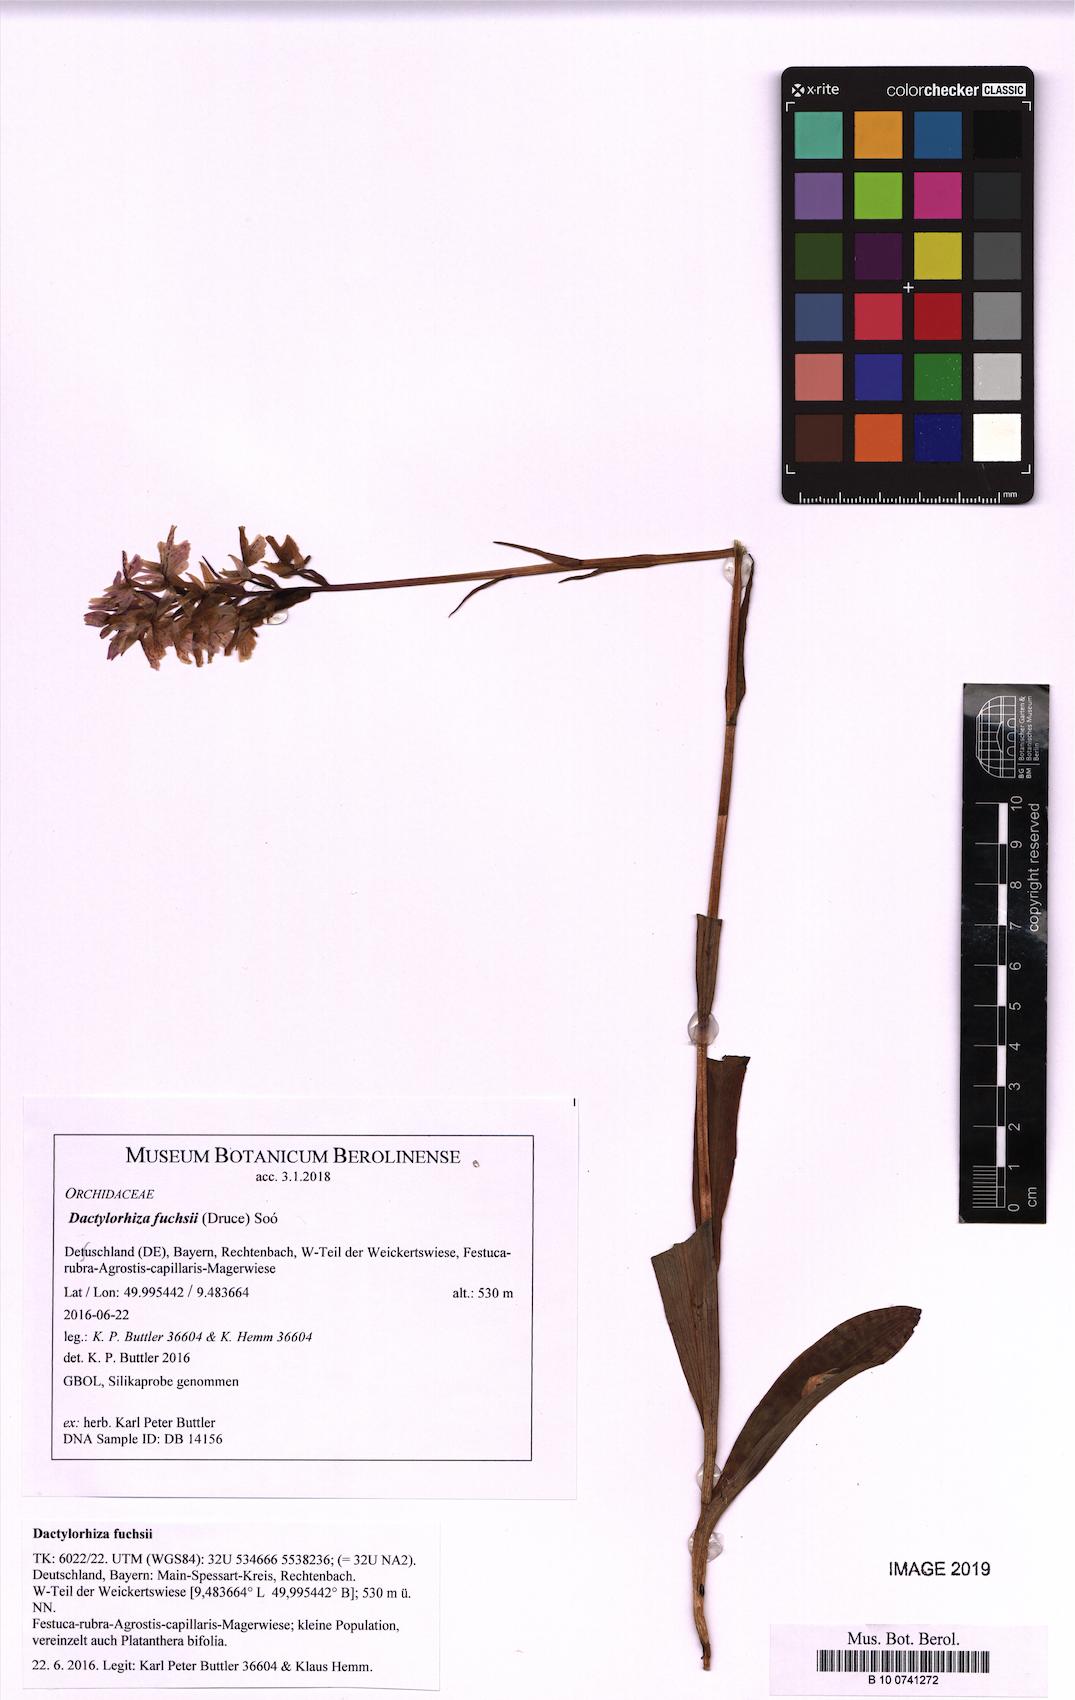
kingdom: Plantae
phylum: Tracheophyta
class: Liliopsida
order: Asparagales
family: Orchidaceae
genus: Dactylorhiza
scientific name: Dactylorhiza maculata
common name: Heath spotted-orchid
